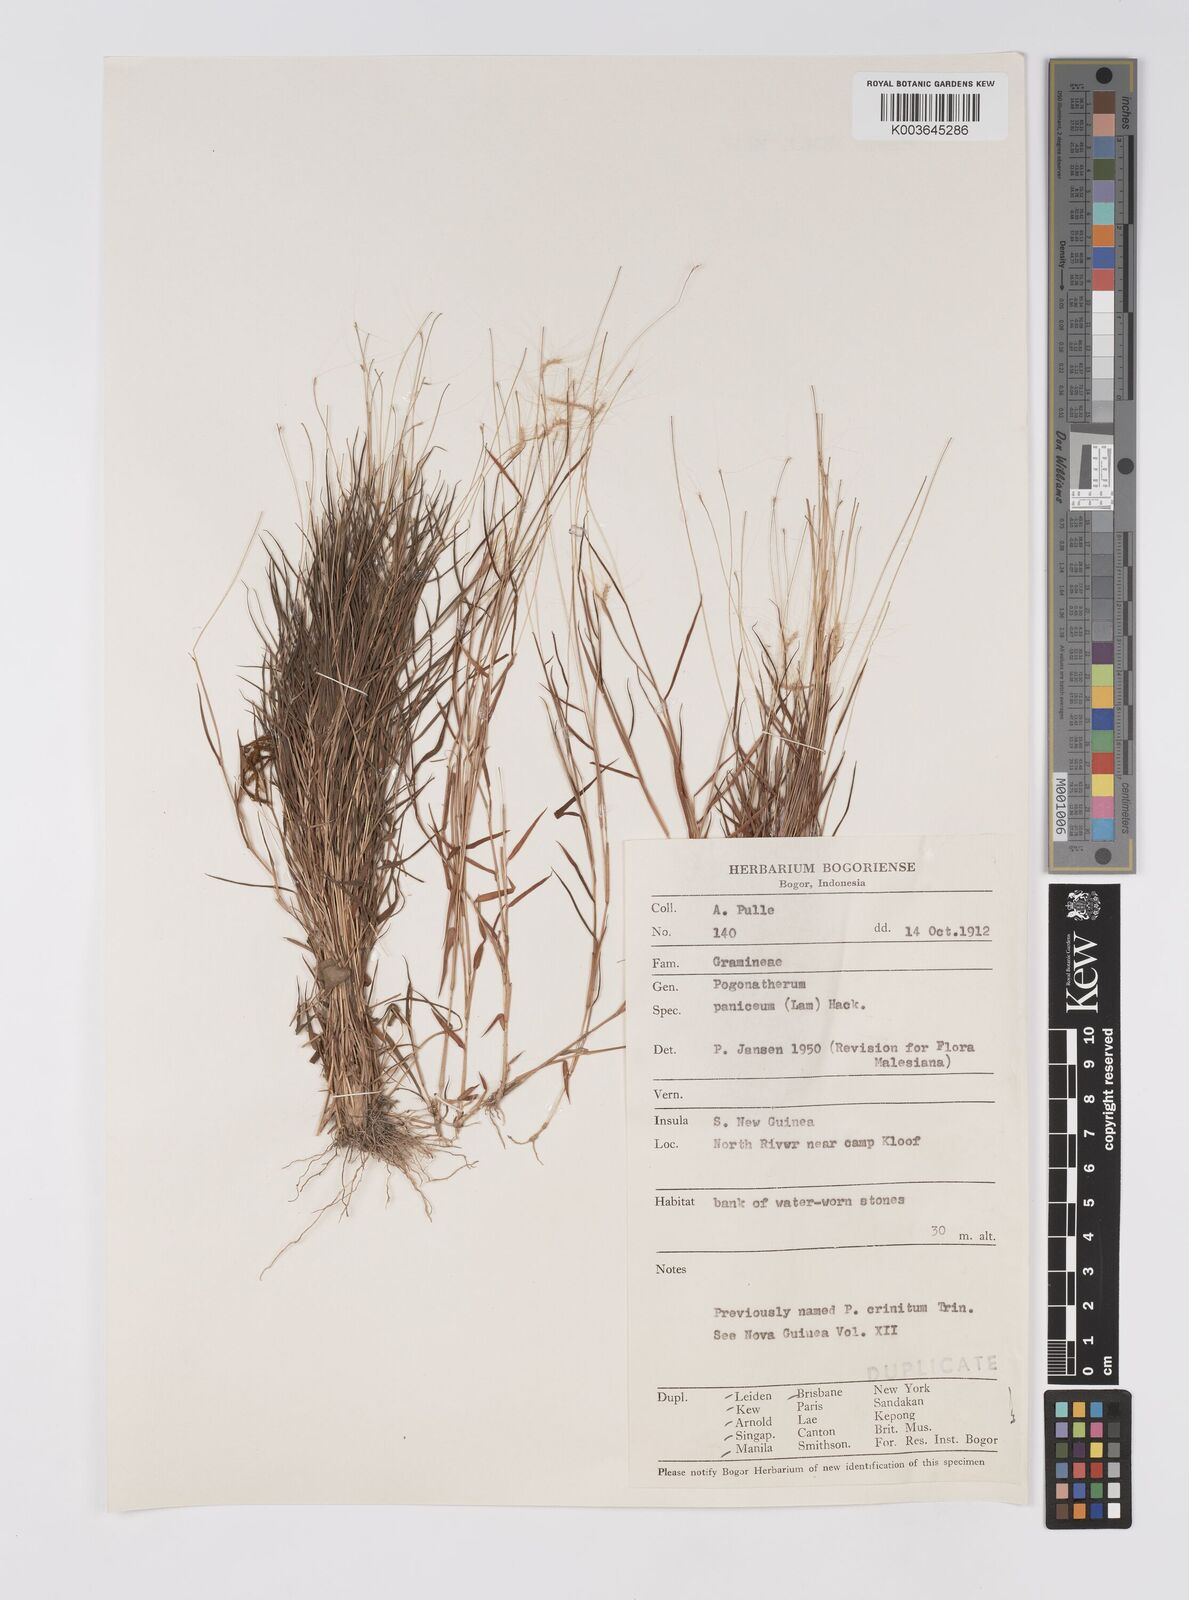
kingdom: Plantae
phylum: Tracheophyta
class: Liliopsida
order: Poales
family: Poaceae
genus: Pogonatherum
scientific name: Pogonatherum crinitum
